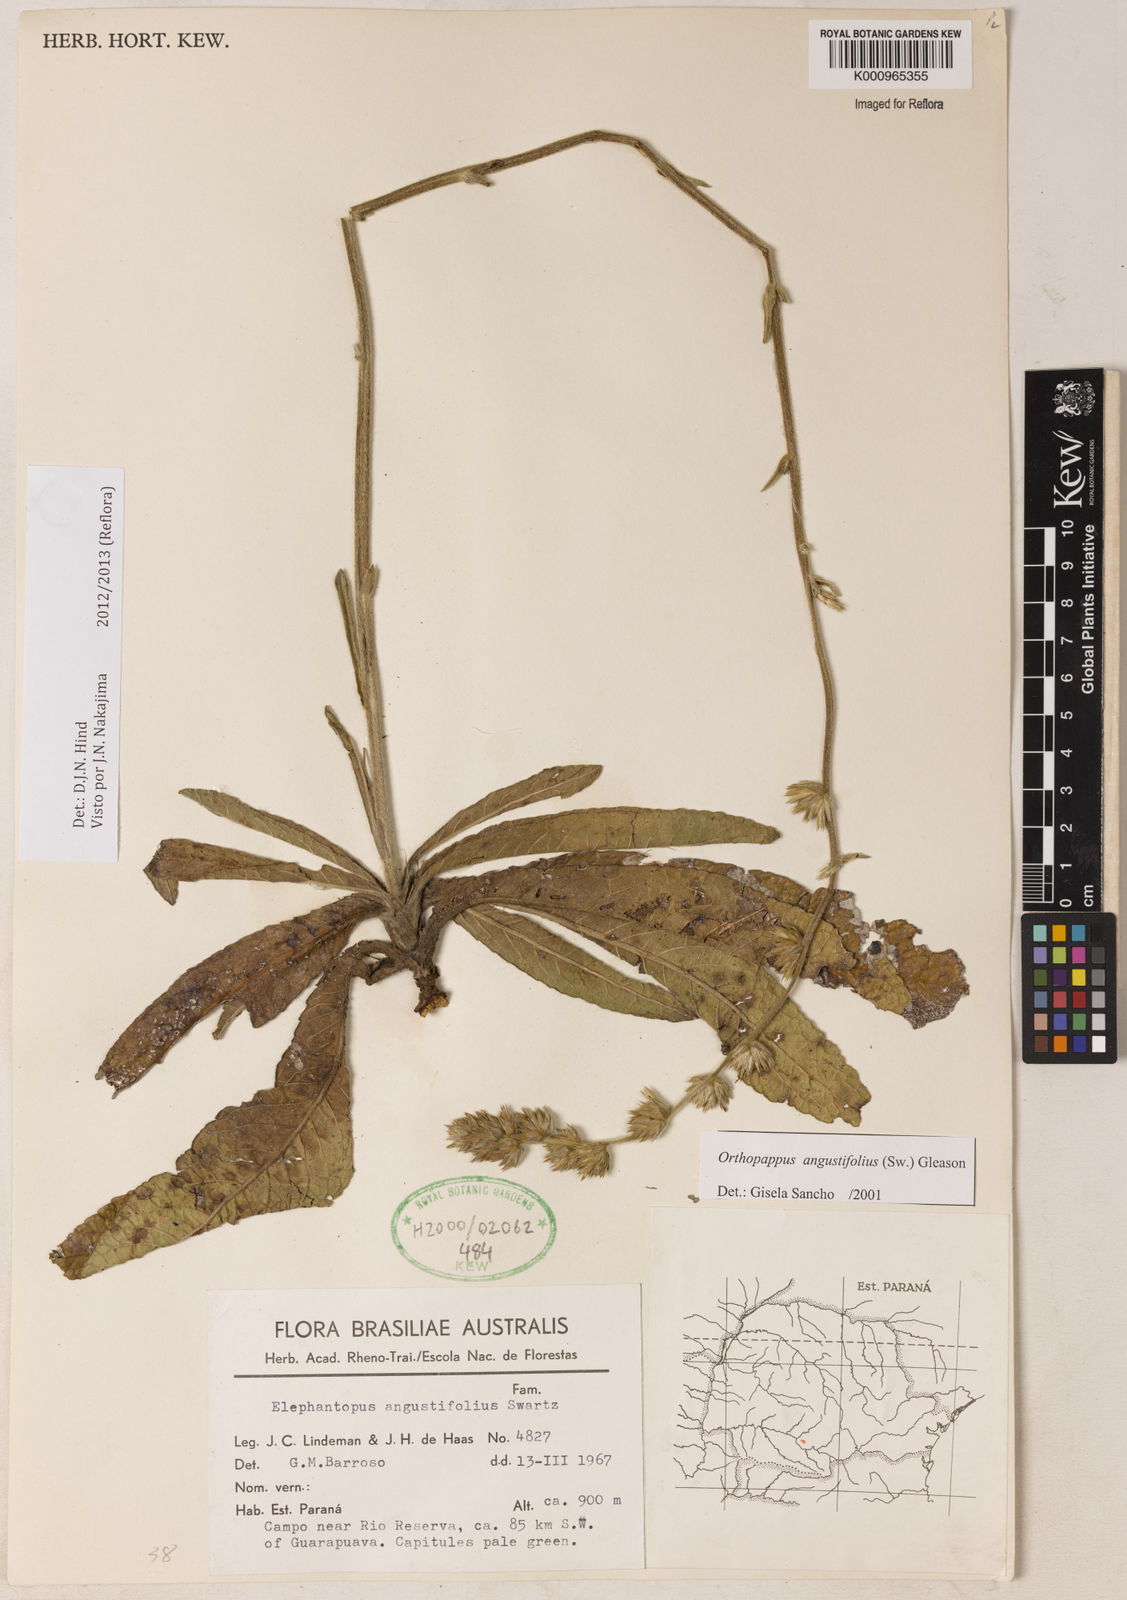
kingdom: Plantae
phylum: Tracheophyta
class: Magnoliopsida
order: Asterales
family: Asteraceae
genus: Orthopappus
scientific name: Orthopappus angustifolius
